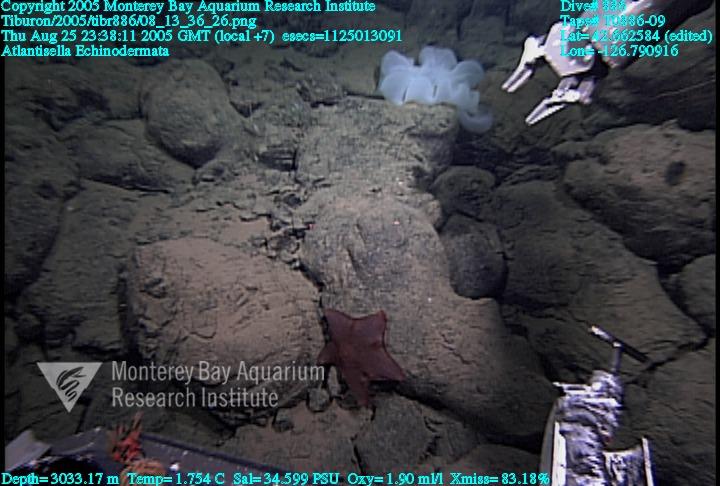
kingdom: Animalia
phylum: Porifera
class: Hexactinellida
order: Lyssacinosida
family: Euplectellidae
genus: Atlantisella
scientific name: Atlantisella
